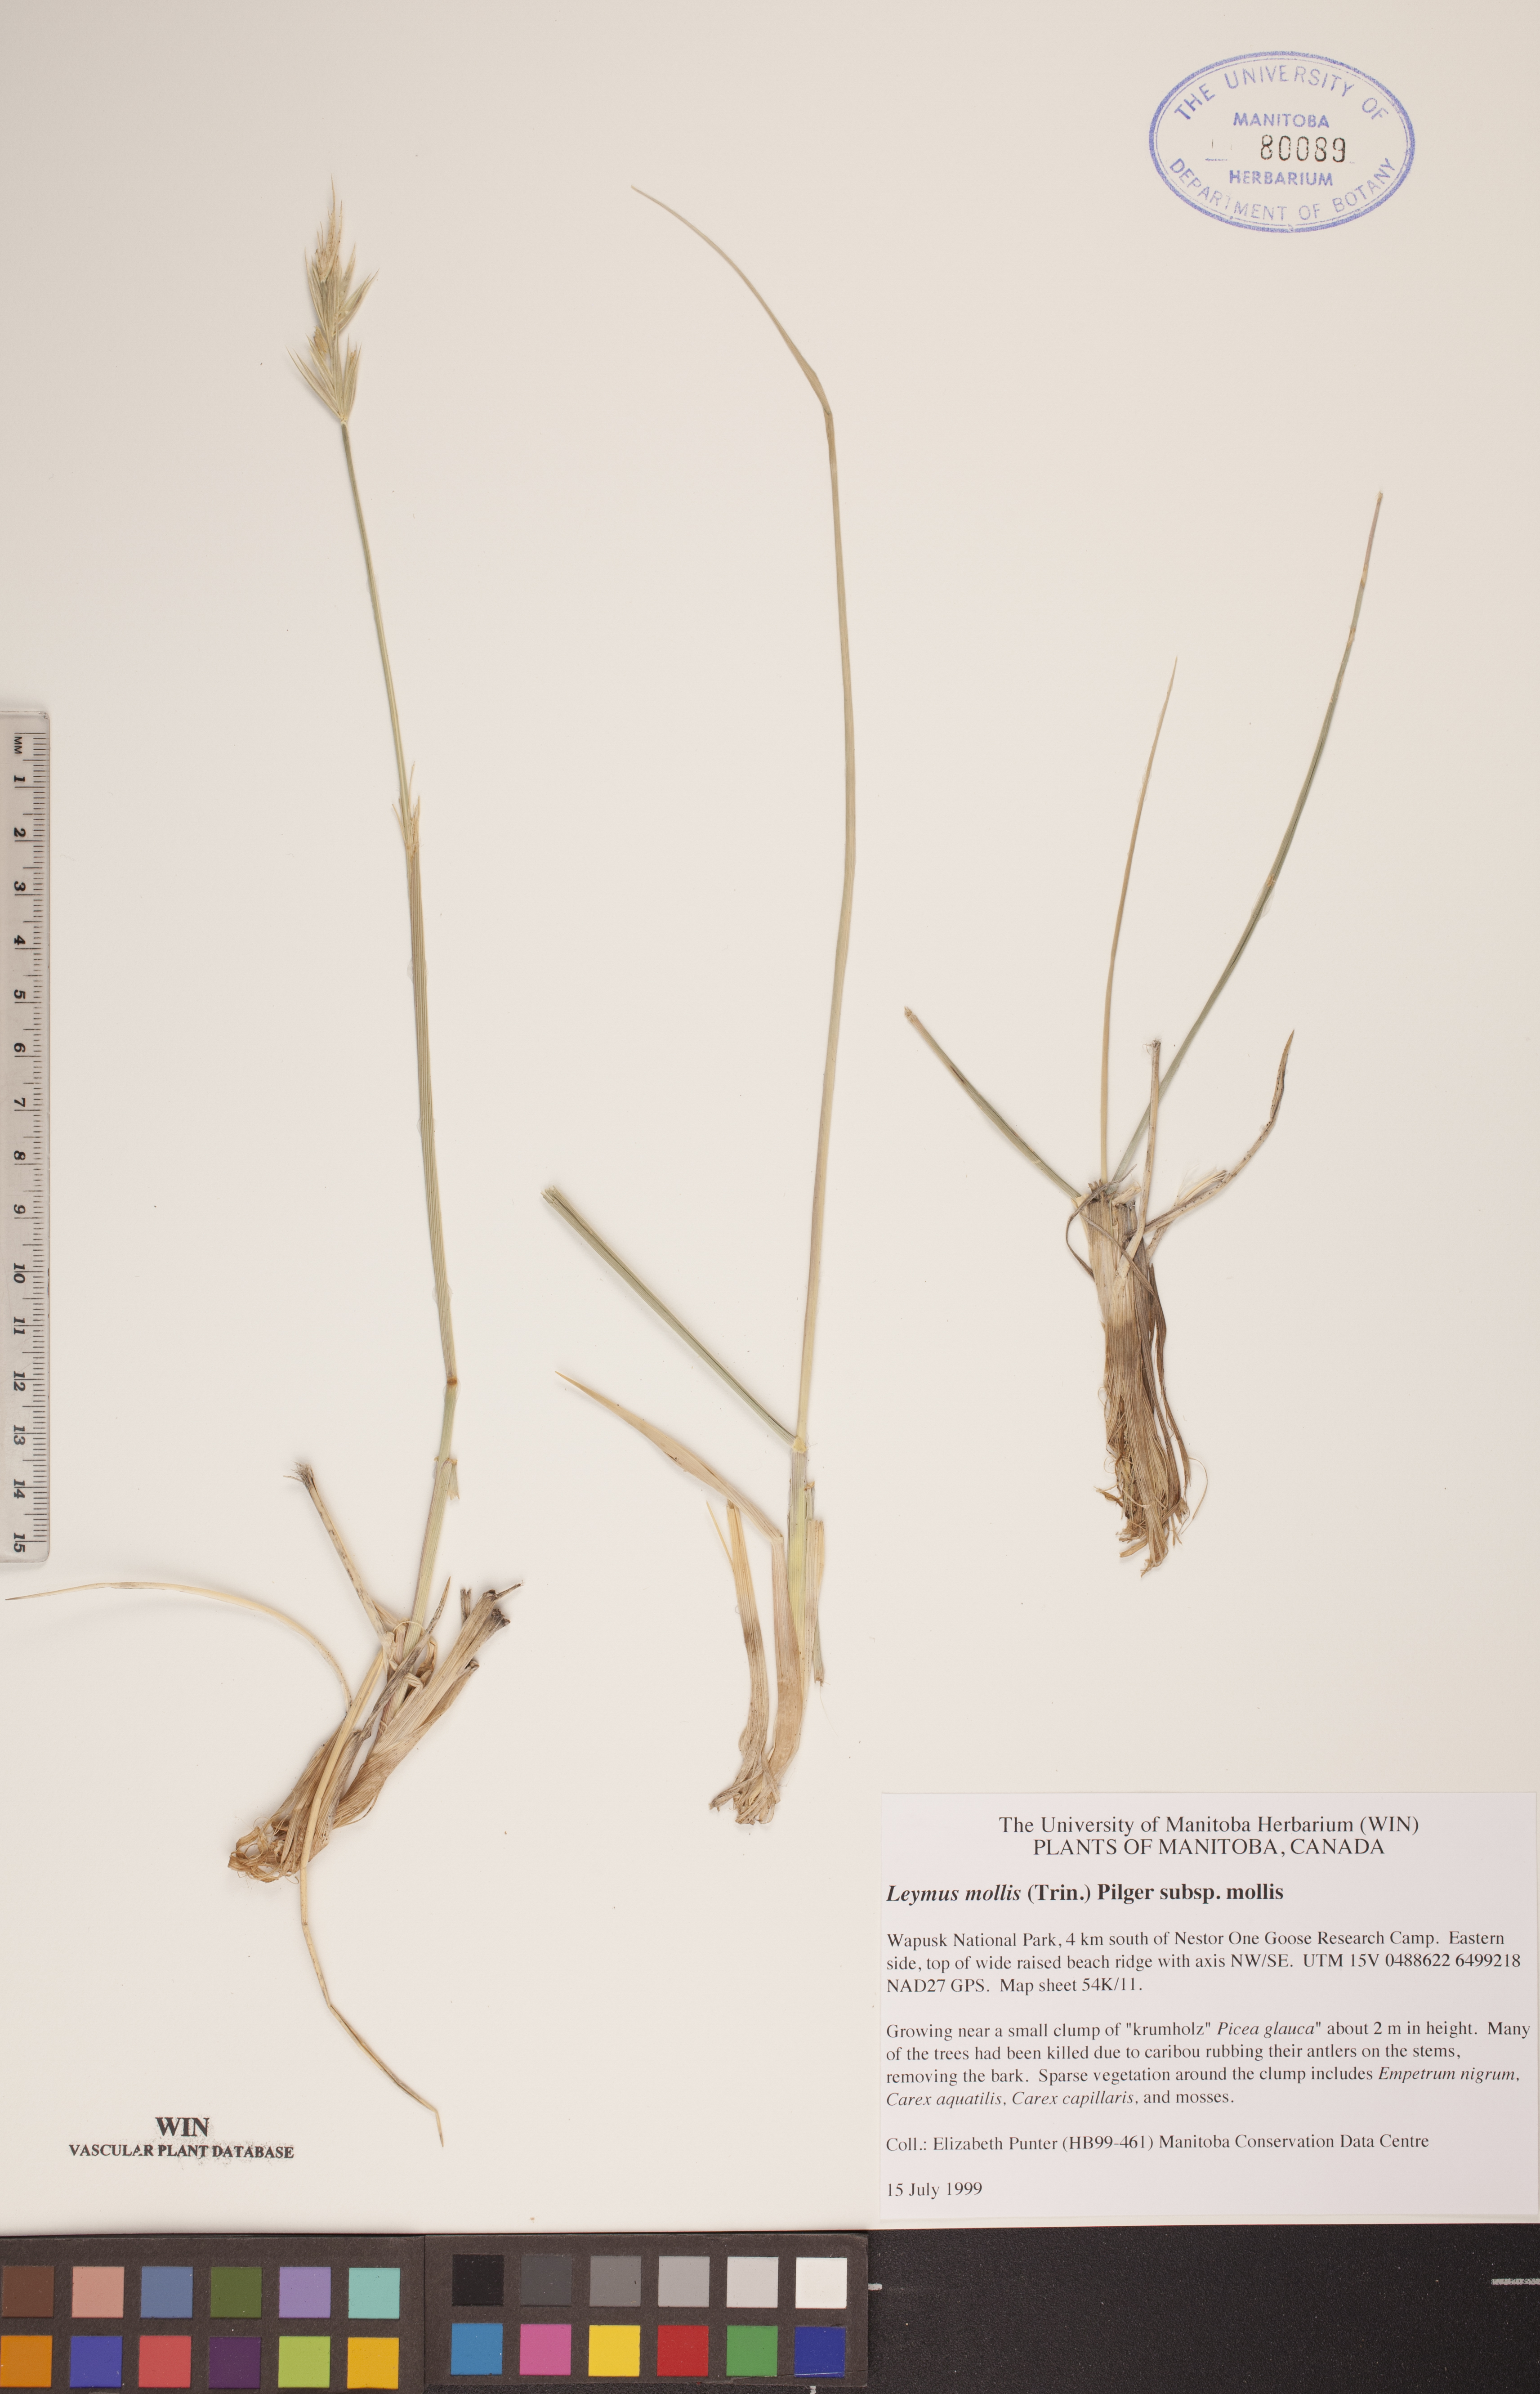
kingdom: Plantae
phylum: Tracheophyta
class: Liliopsida
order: Poales
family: Poaceae
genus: Leymus
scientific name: Leymus mollis
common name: American dune grass
